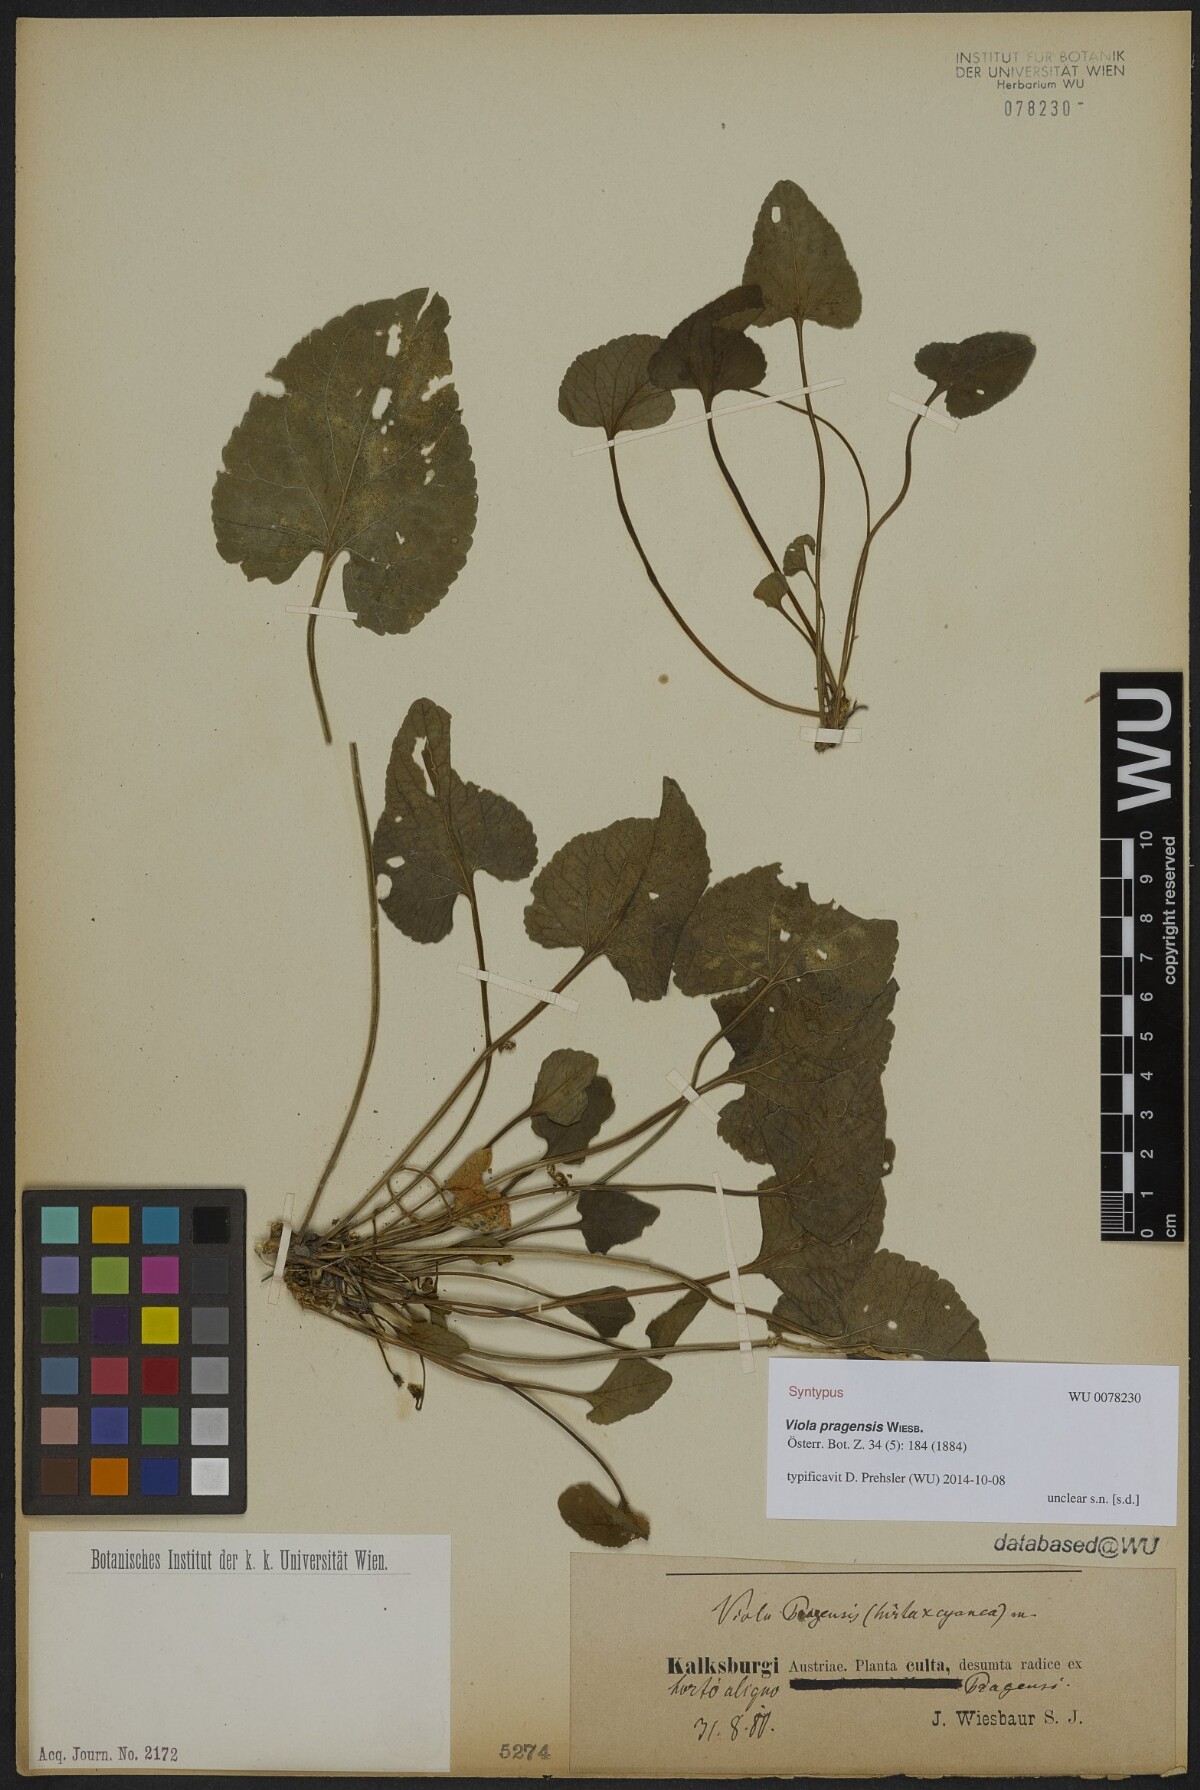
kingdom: Plantae
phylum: Tracheophyta
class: Magnoliopsida
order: Malpighiales
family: Violaceae
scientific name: Violaceae
